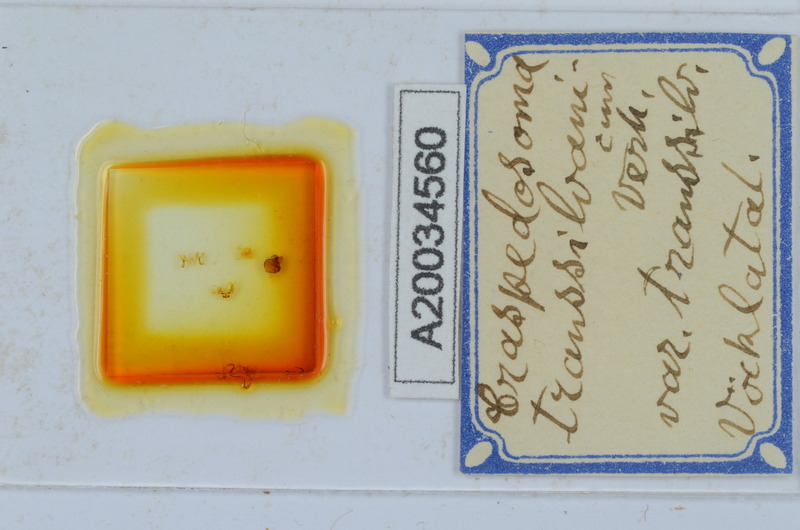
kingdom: Animalia
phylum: Arthropoda
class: Diplopoda
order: Chordeumatida
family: Craspedosomatidae
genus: Craspedosoma
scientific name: Craspedosoma rawlinsii
